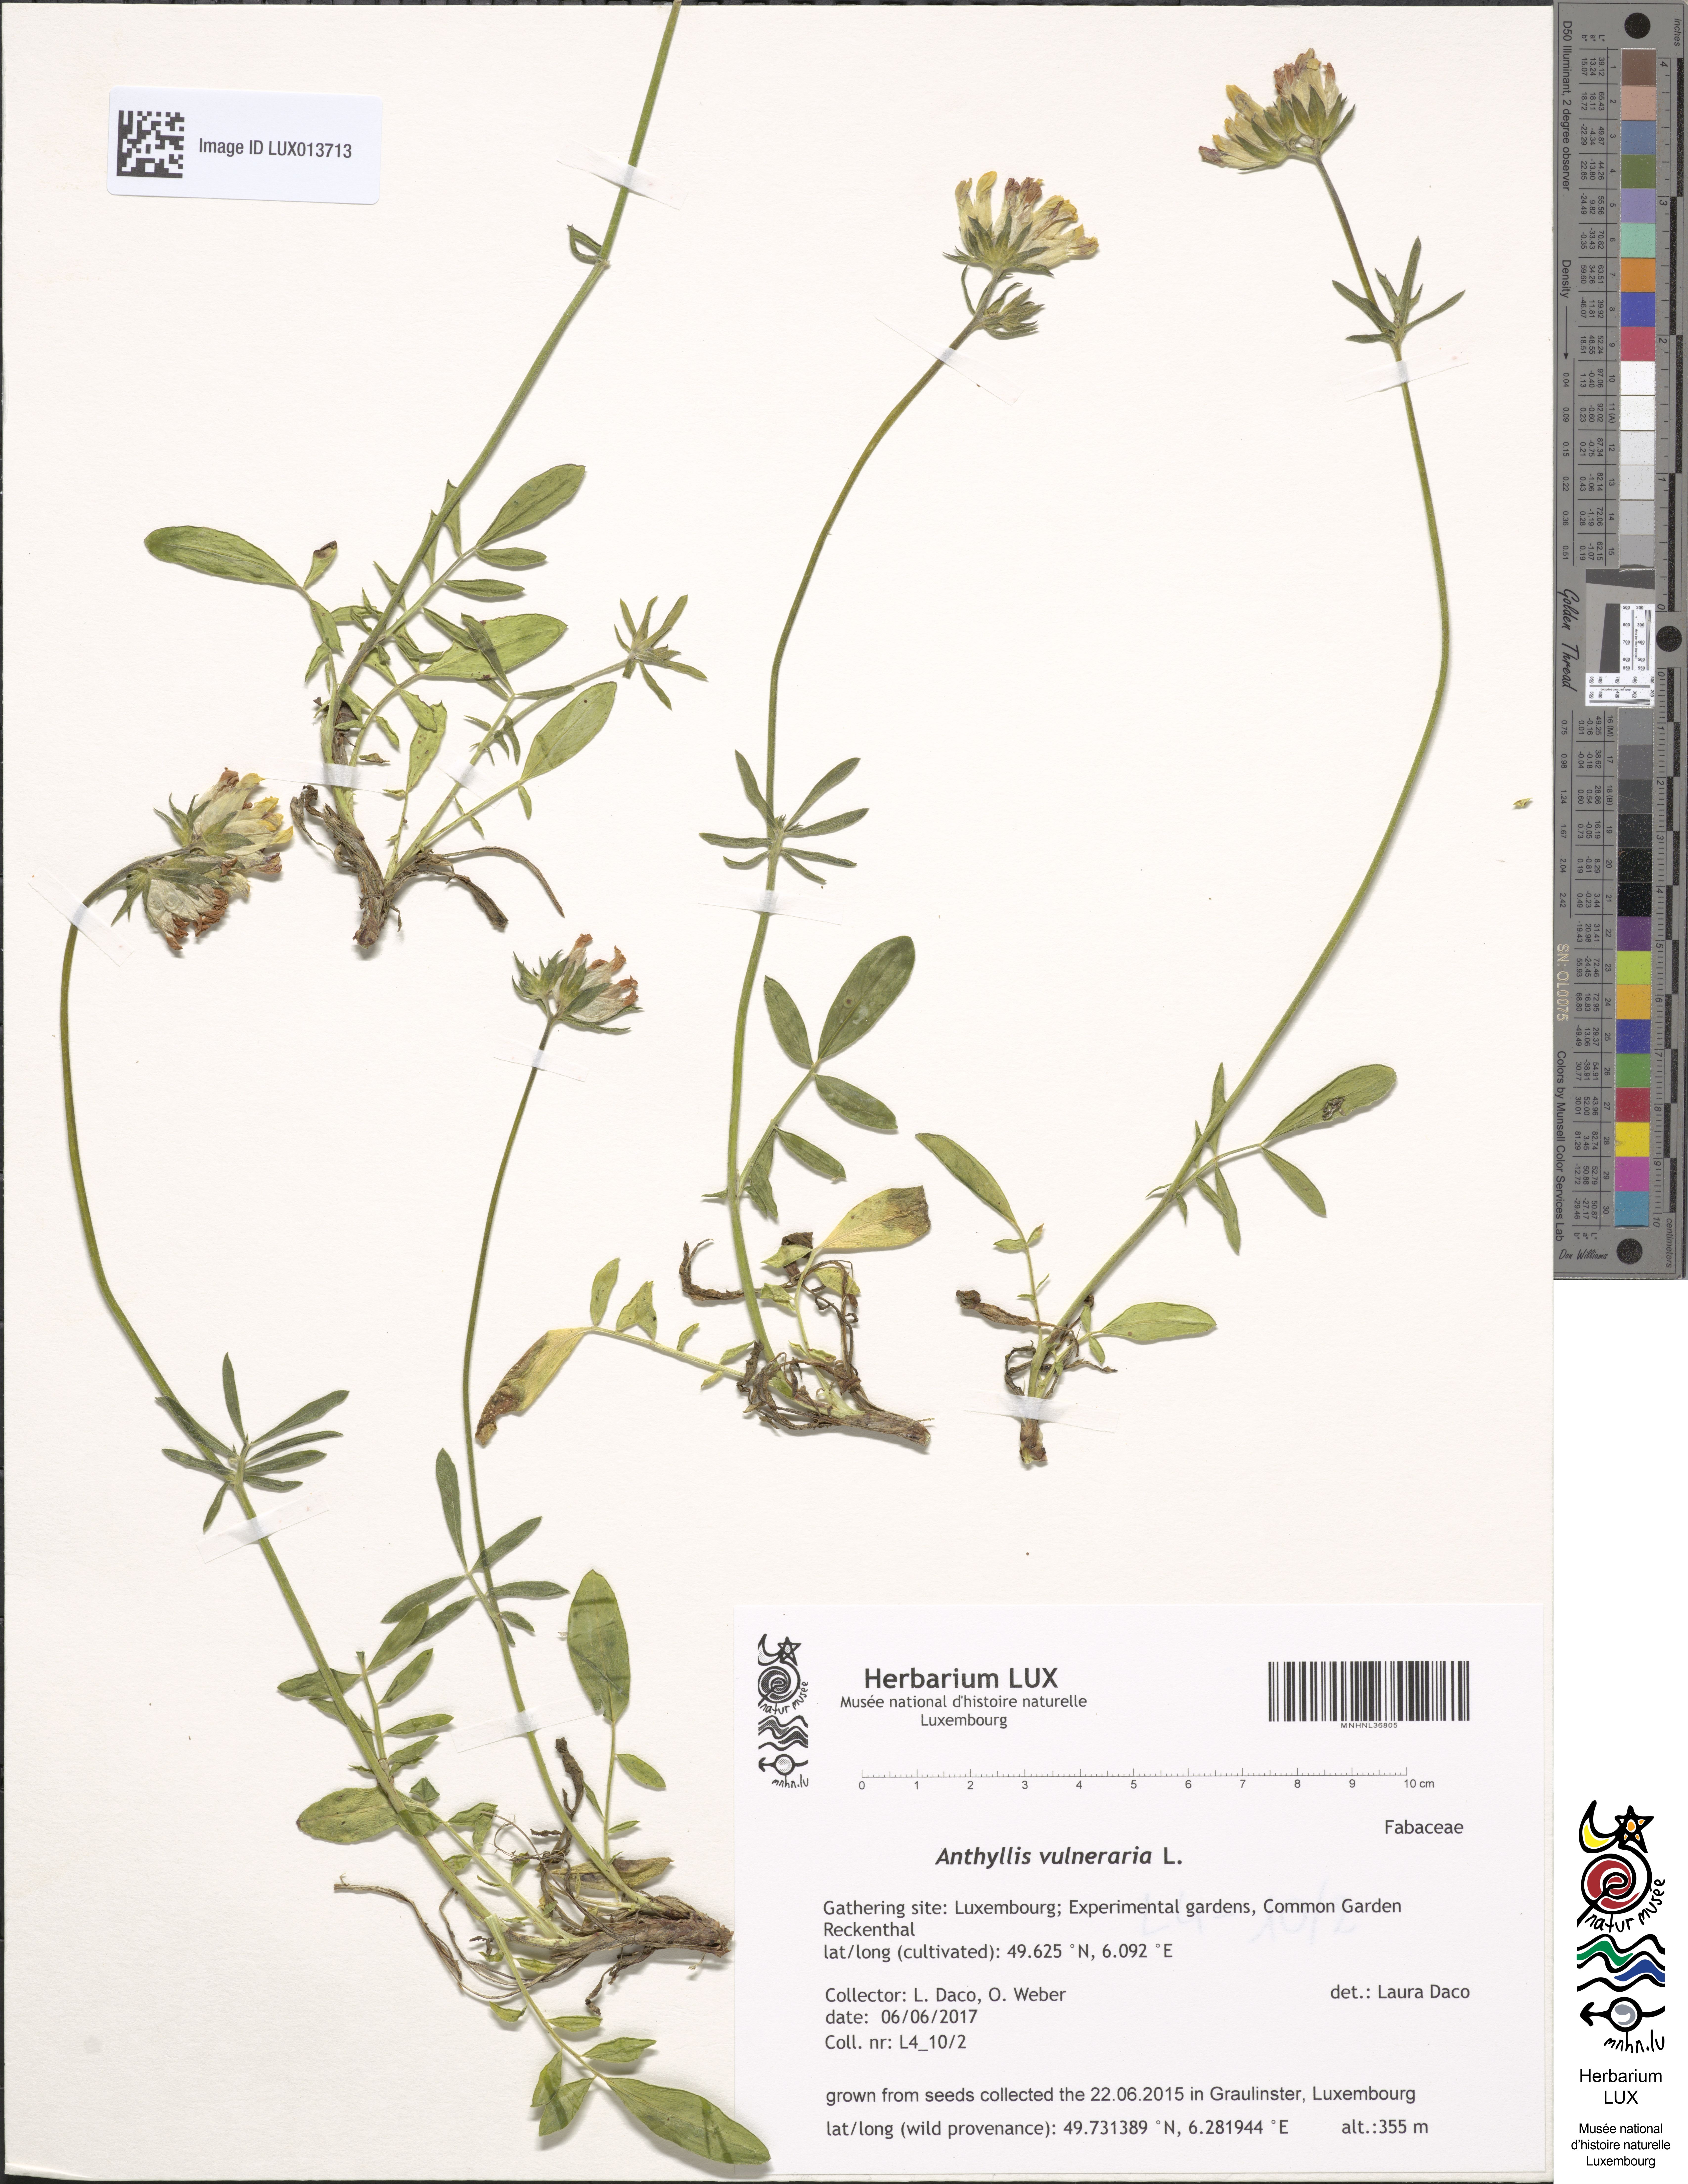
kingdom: Plantae
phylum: Tracheophyta
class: Magnoliopsida
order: Fabales
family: Fabaceae
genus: Anthyllis
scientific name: Anthyllis vulneraria
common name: Kidney vetch
